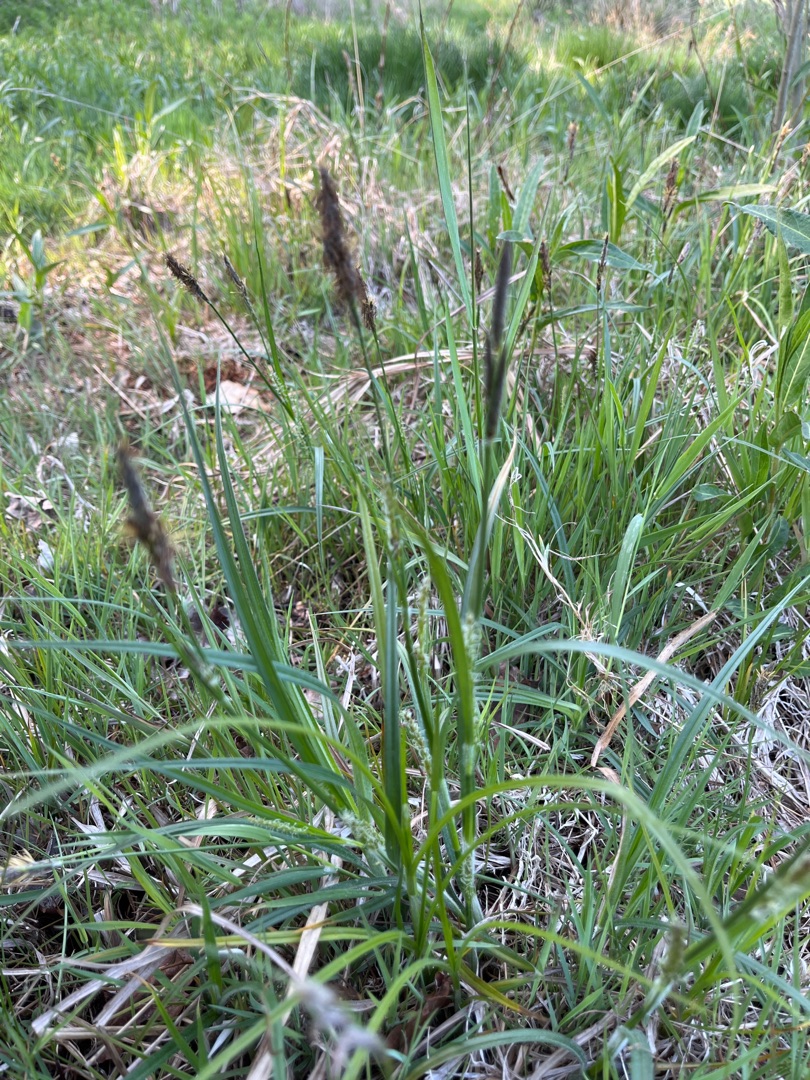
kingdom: Plantae
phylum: Tracheophyta
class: Liliopsida
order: Poales
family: Cyperaceae
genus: Carex
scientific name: Carex hirta
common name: Håret star
